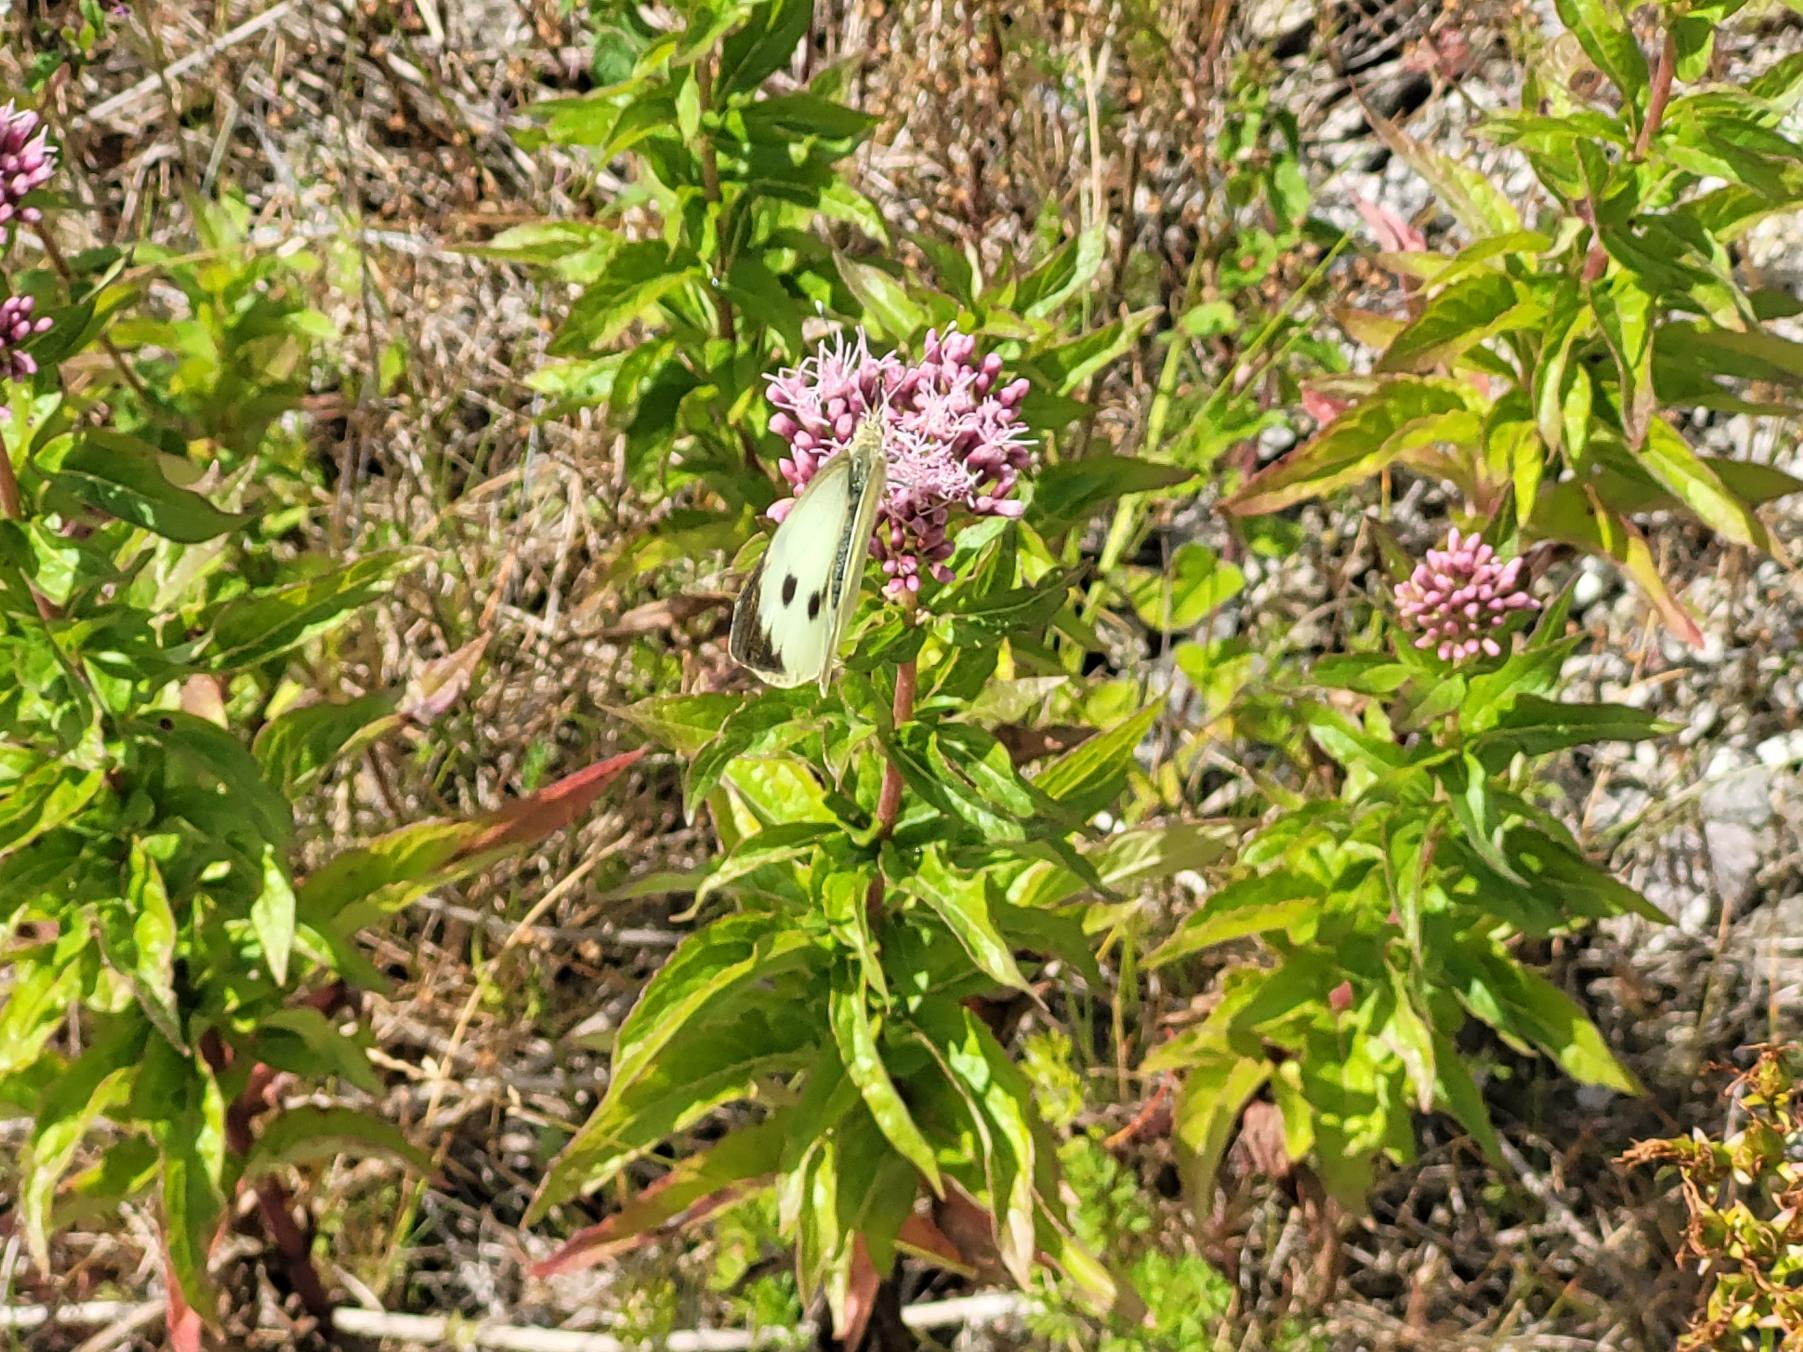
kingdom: Animalia
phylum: Arthropoda
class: Insecta
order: Lepidoptera
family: Pieridae
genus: Pieris
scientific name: Pieris brassicae
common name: Stor kålsommerfugl
